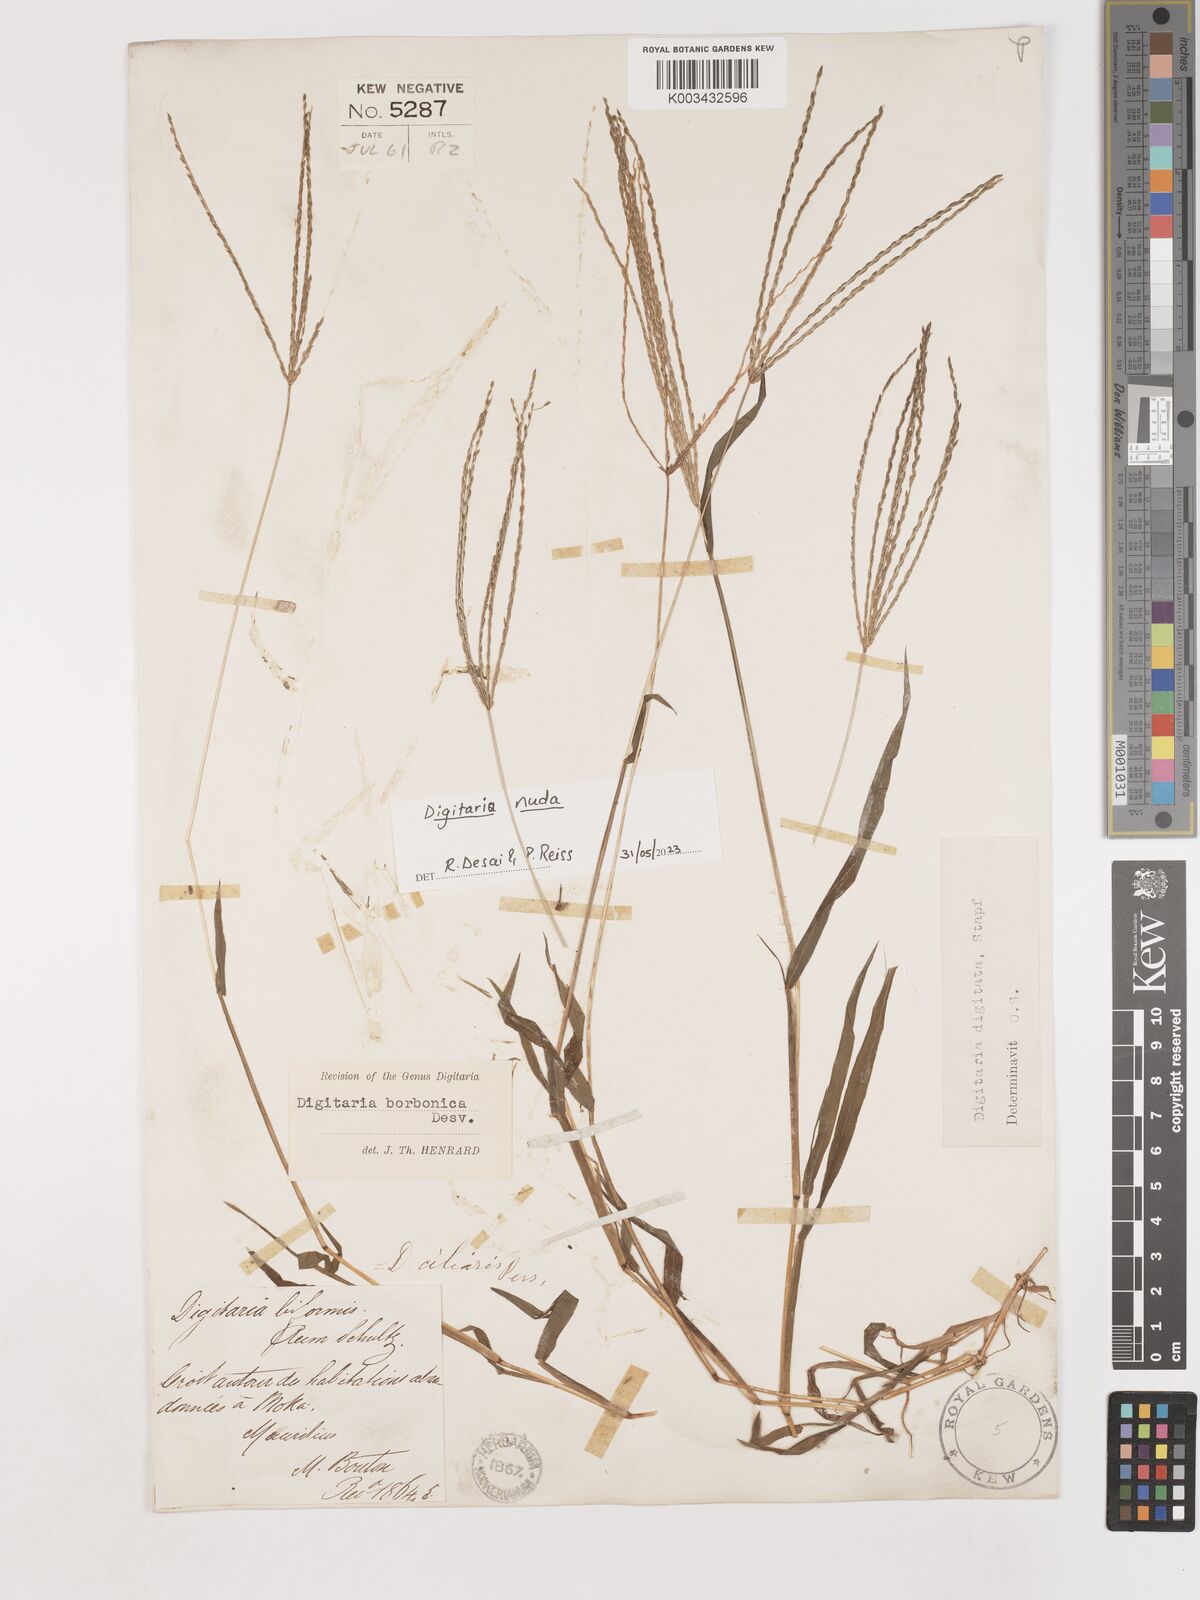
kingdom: Plantae
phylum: Tracheophyta
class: Liliopsida
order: Poales
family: Poaceae
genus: Digitaria
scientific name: Digitaria nuda
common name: Naked crabgrass
